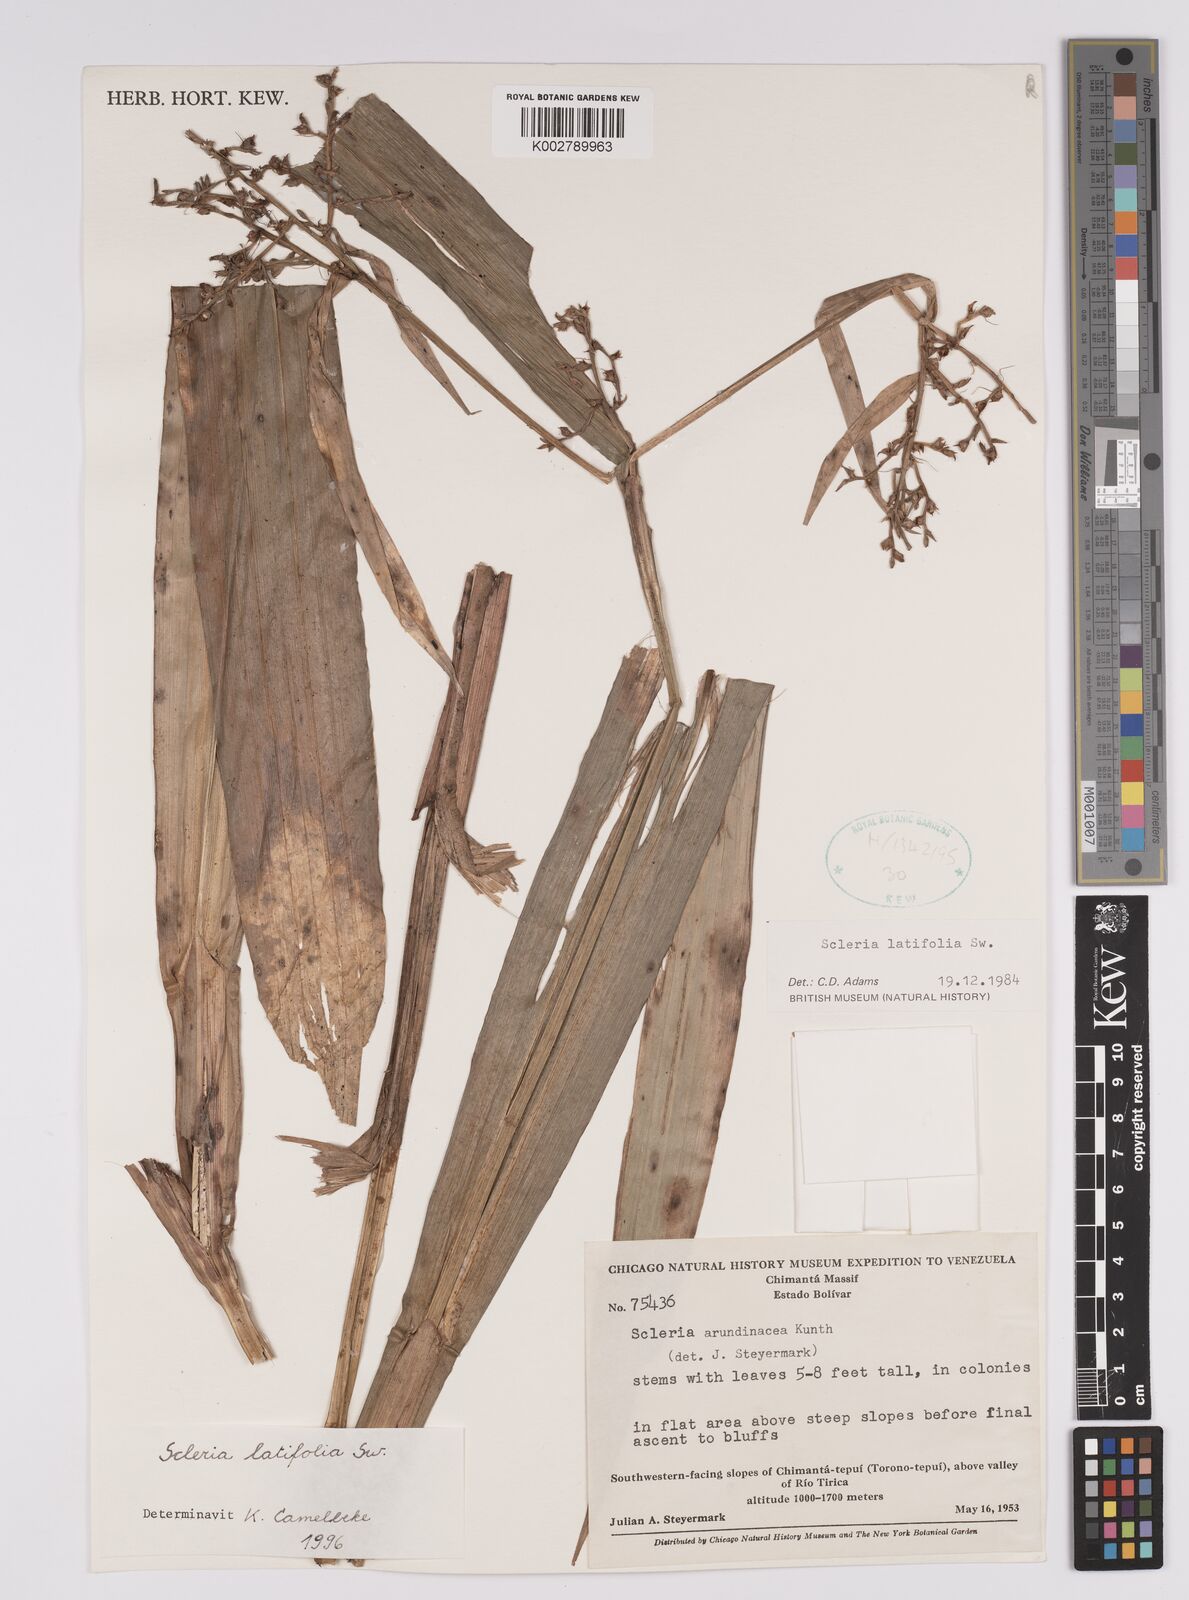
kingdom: Plantae
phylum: Tracheophyta
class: Liliopsida
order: Poales
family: Cyperaceae
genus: Scleria
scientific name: Scleria latifolia
